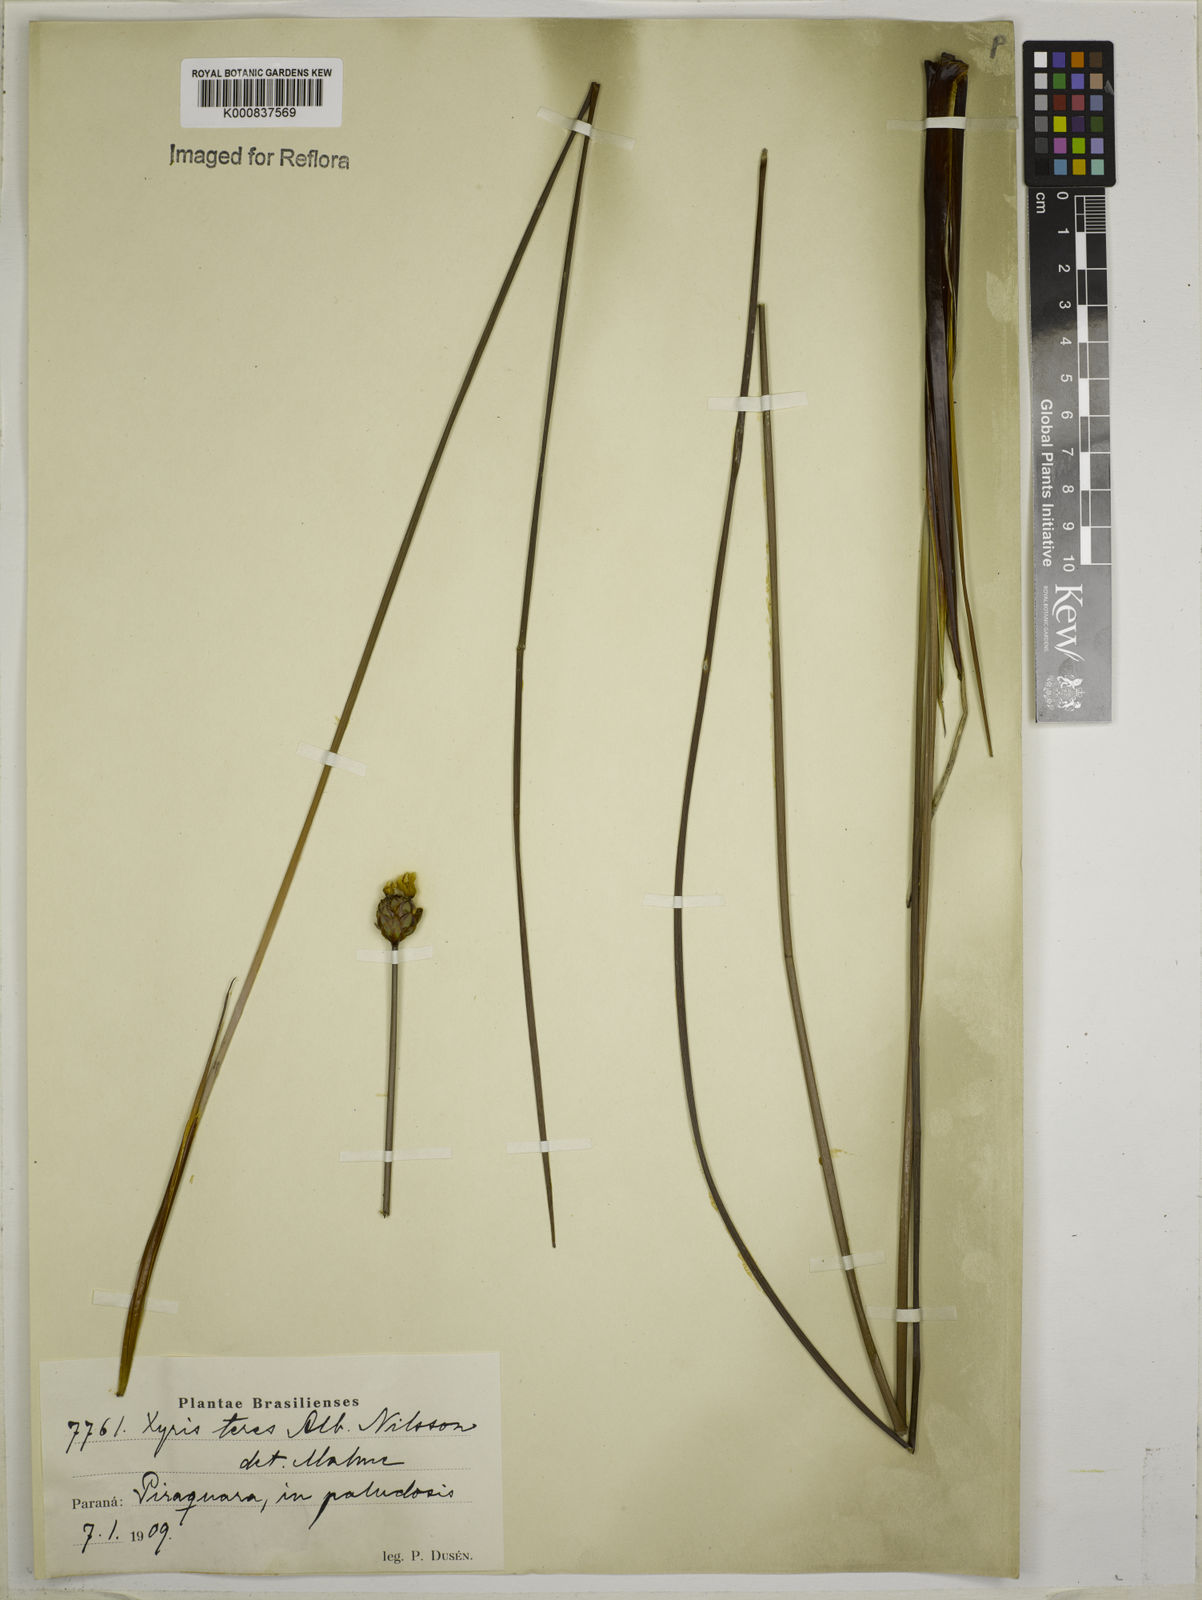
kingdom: Plantae
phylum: Tracheophyta
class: Liliopsida
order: Poales
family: Xyridaceae
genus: Xyris
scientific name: Xyris teres
